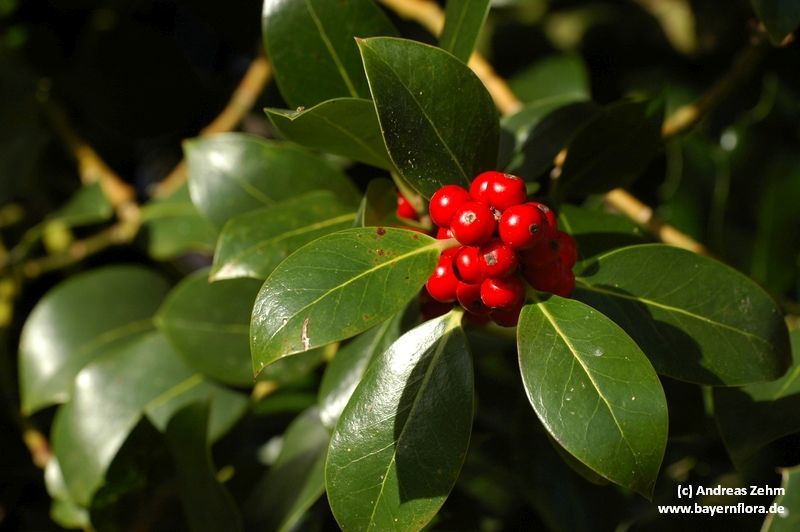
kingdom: Plantae
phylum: Tracheophyta
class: Magnoliopsida
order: Aquifoliales
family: Aquifoliaceae
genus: Ilex
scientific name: Ilex aquifolium
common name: English holly
